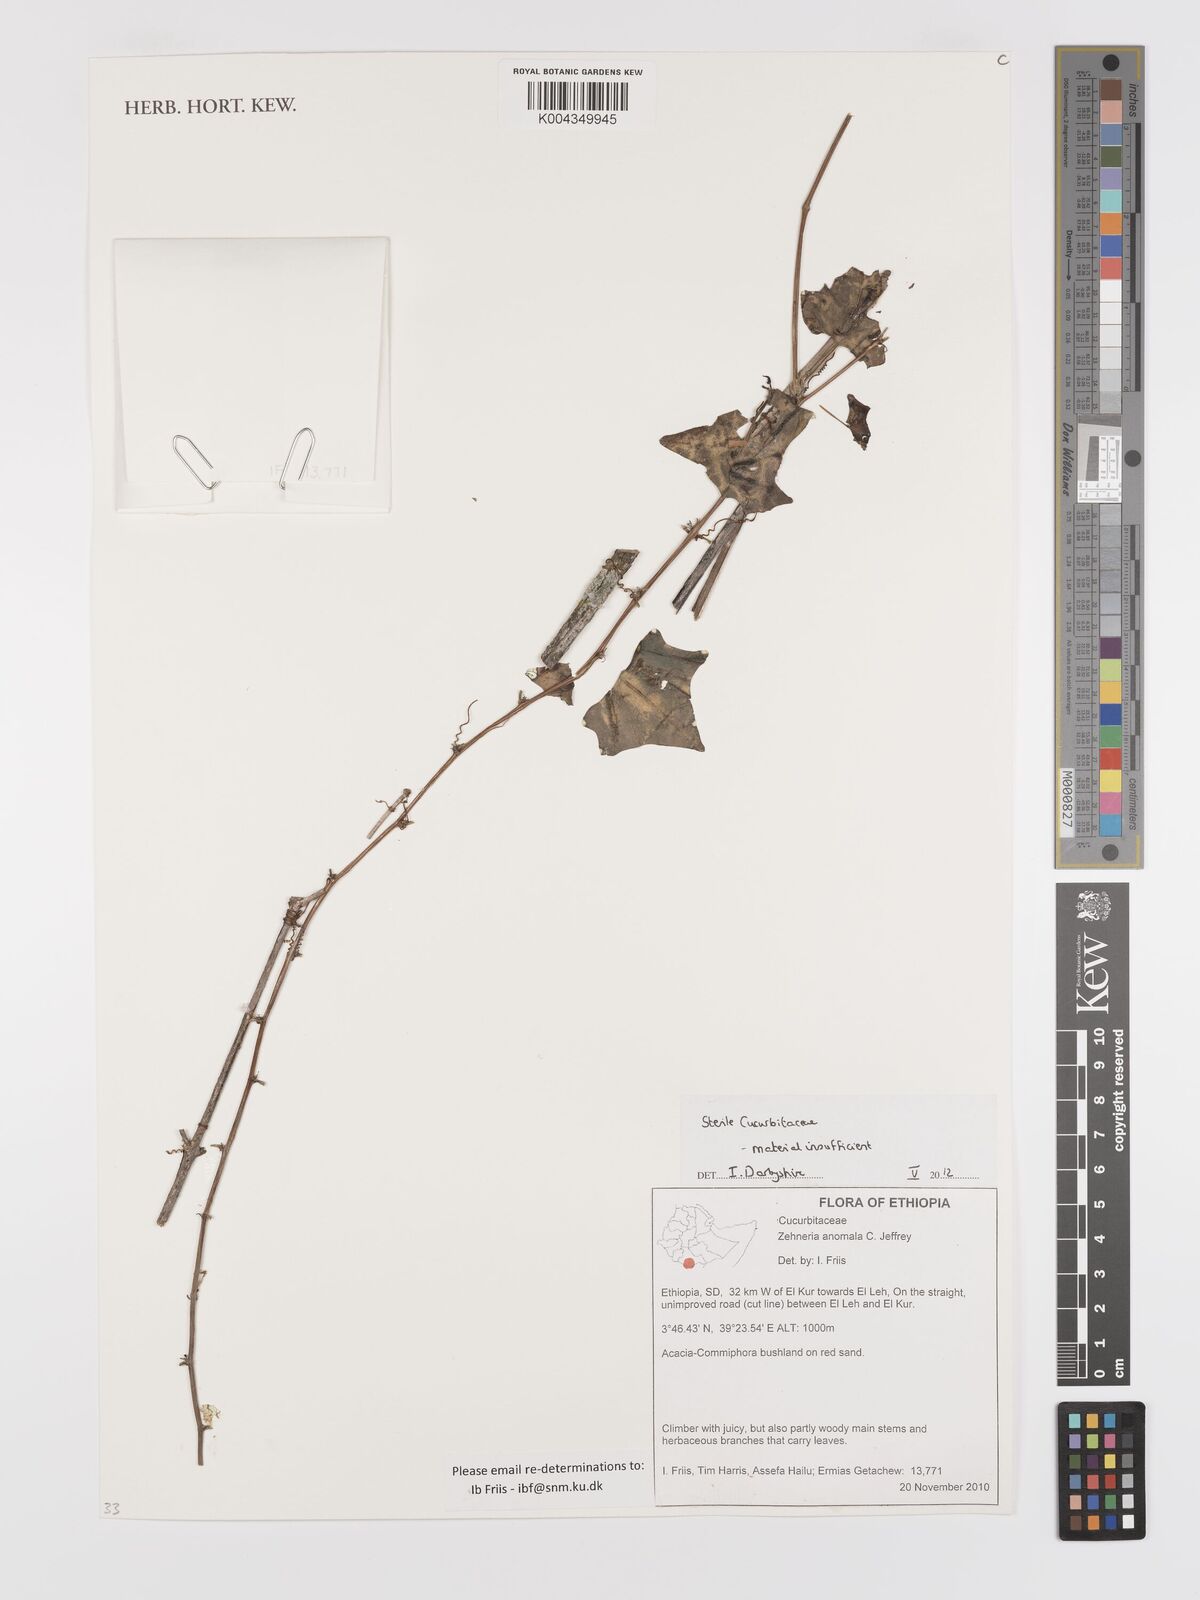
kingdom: Plantae
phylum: Tracheophyta
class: Magnoliopsida
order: Cucurbitales
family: Cucurbitaceae
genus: Zehneria
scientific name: Zehneria anomala
